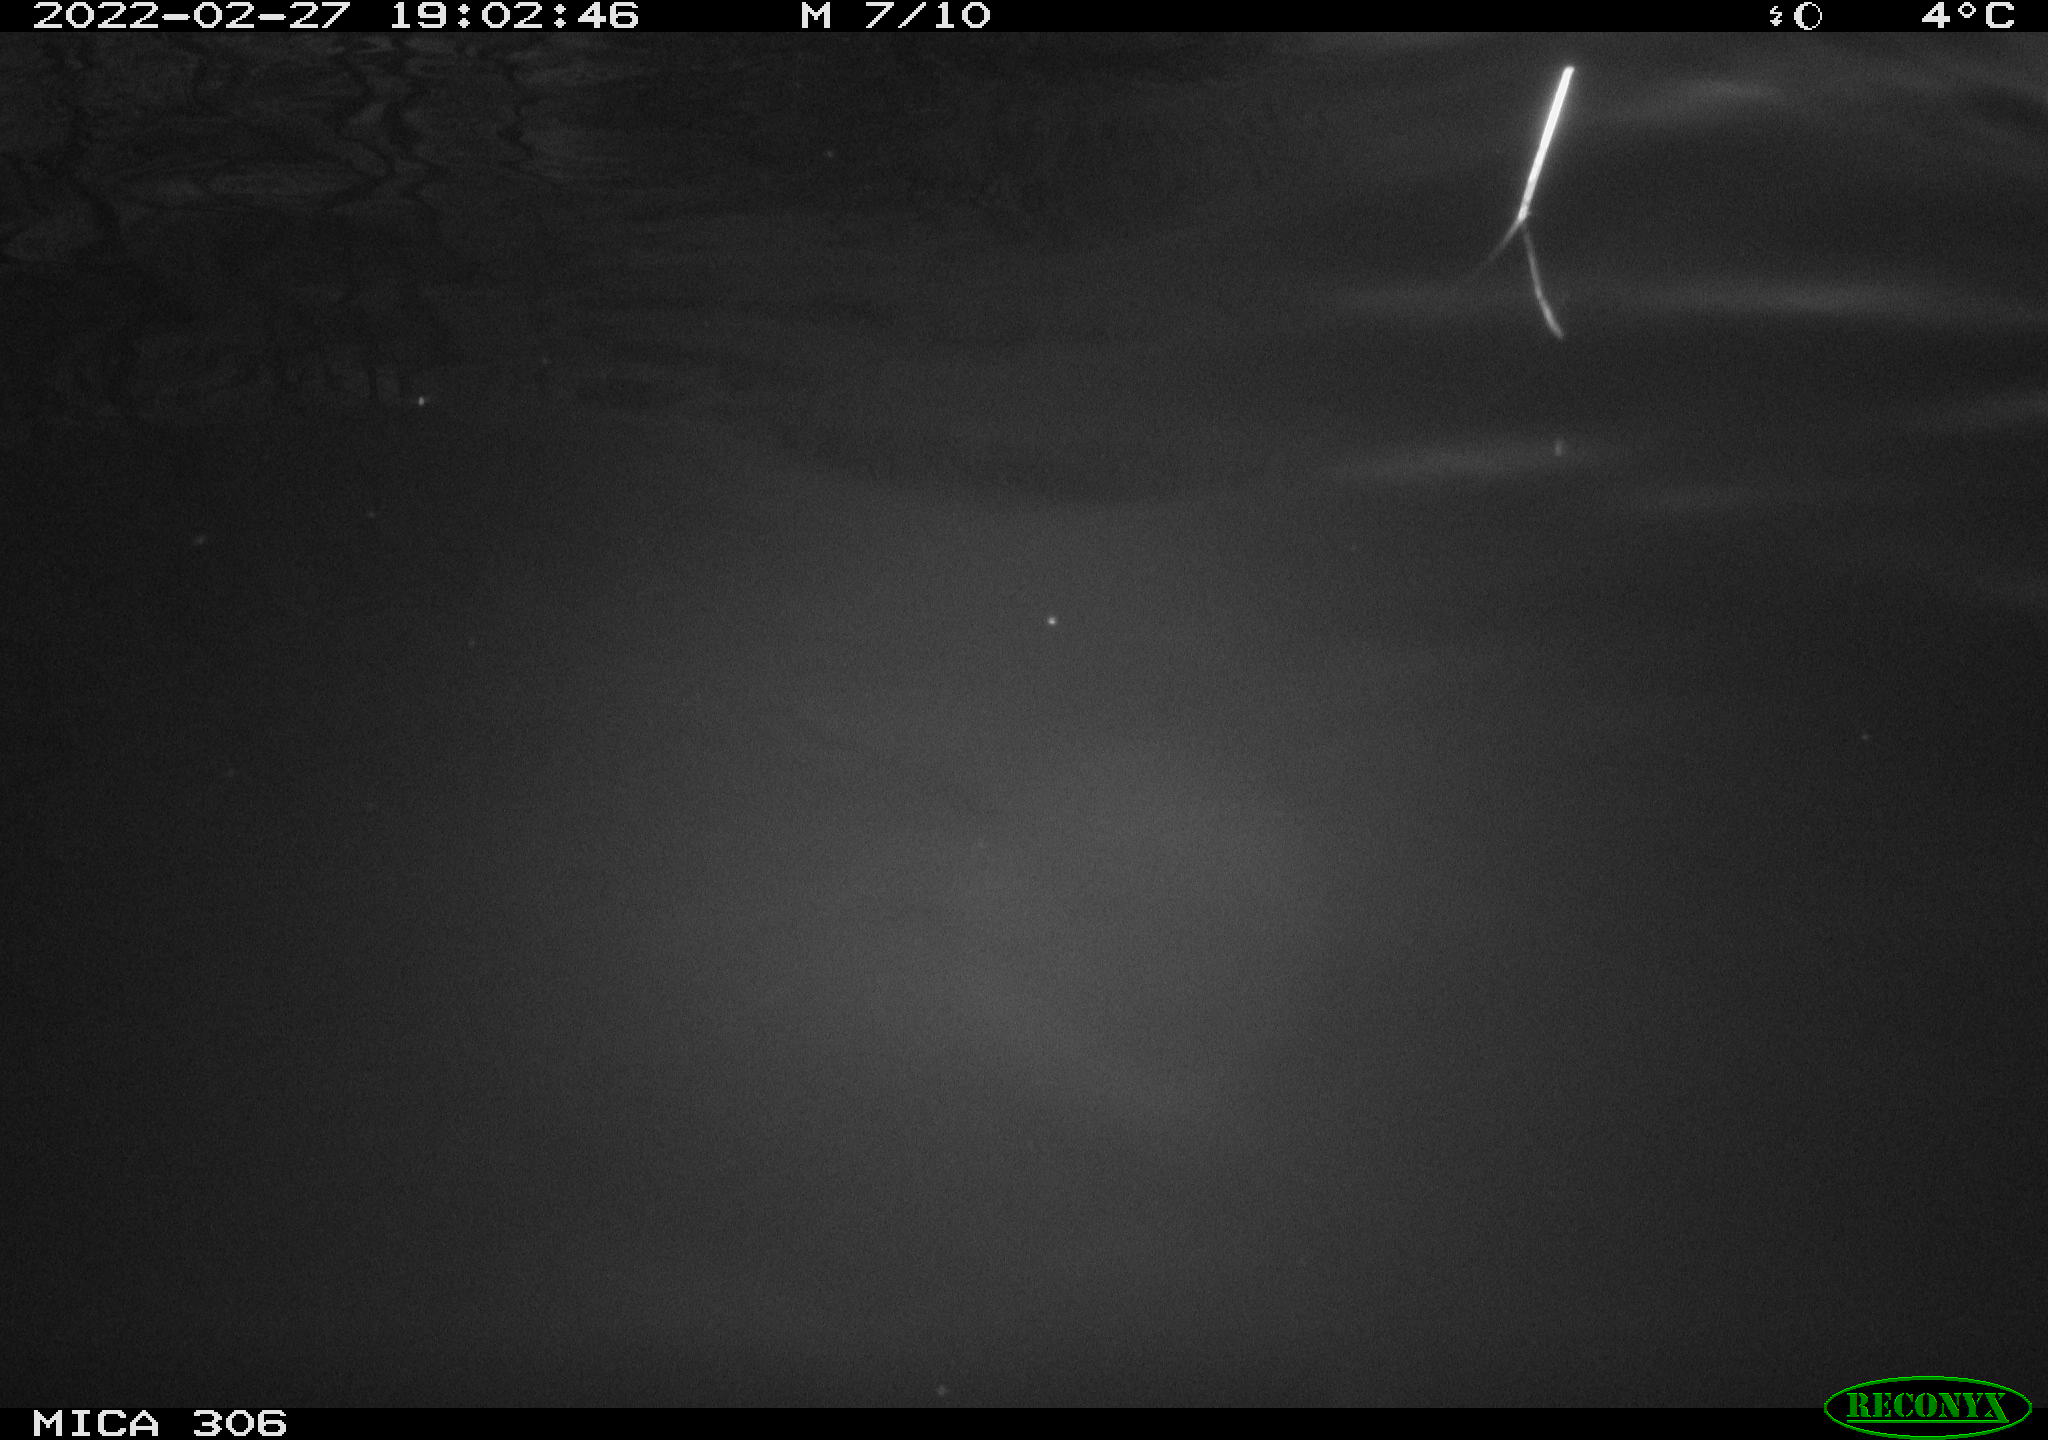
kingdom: Animalia
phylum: Chordata
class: Mammalia
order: Rodentia
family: Cricetidae
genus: Ondatra
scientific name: Ondatra zibethicus
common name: Muskrat
